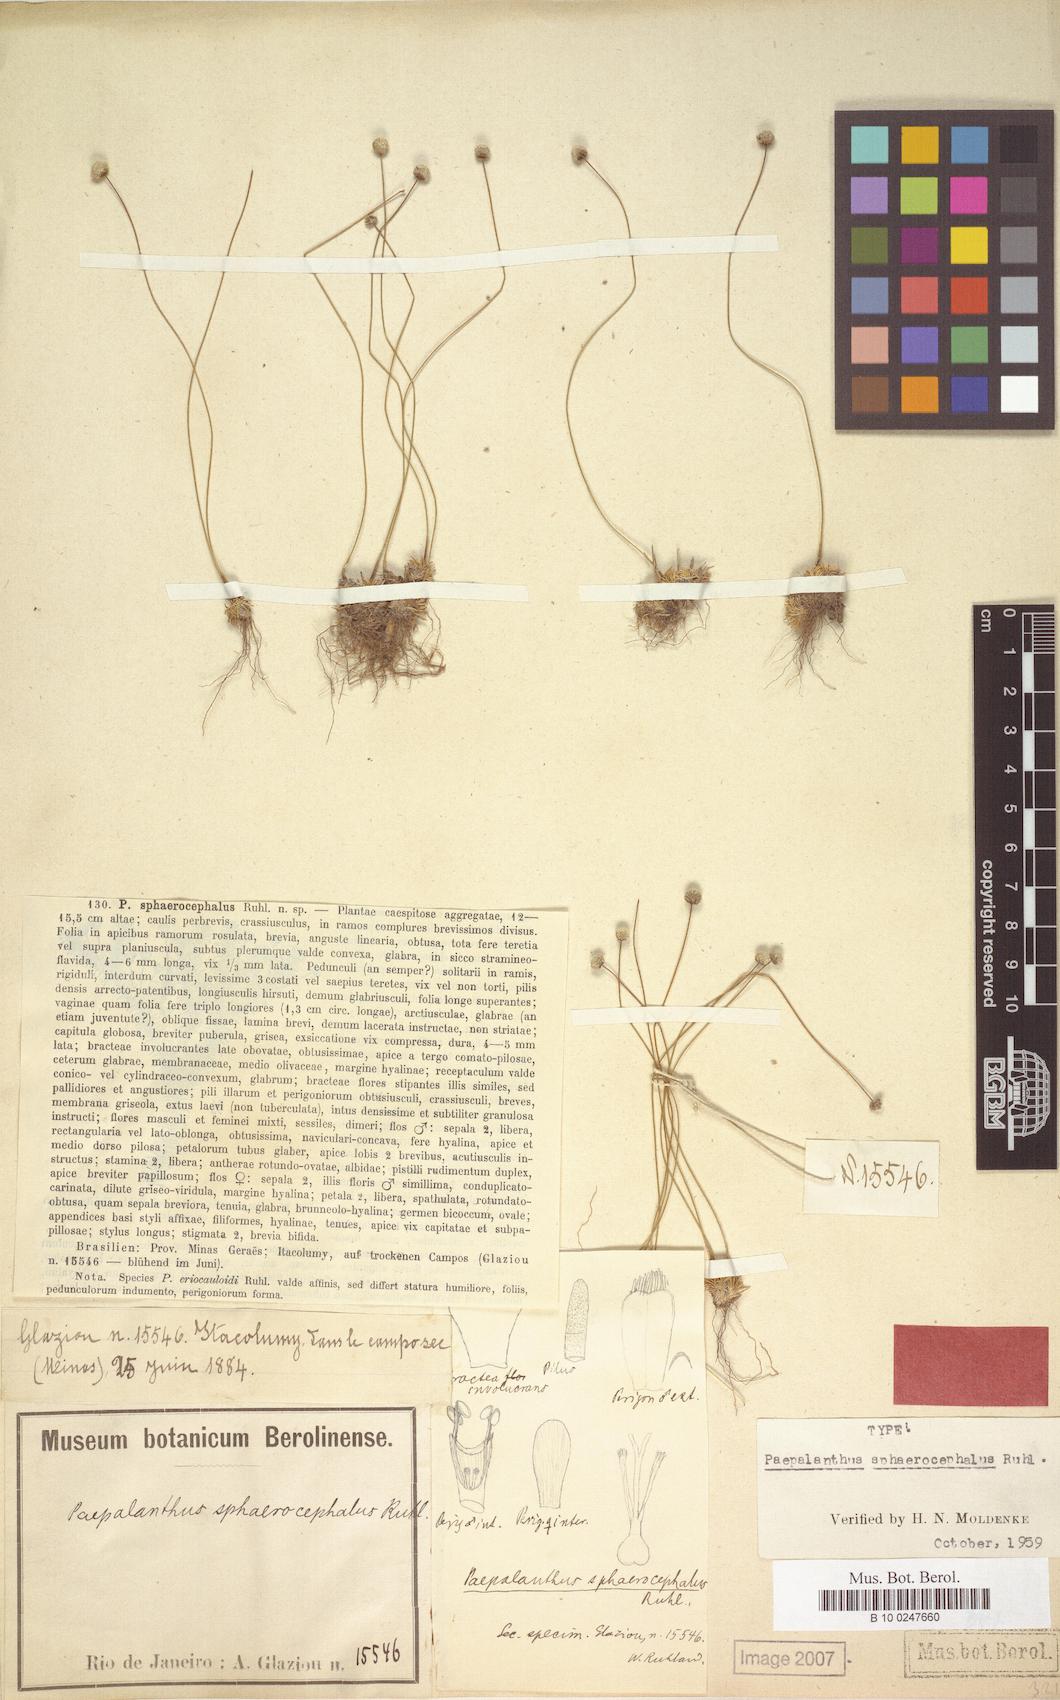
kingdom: Plantae
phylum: Tracheophyta
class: Liliopsida
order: Poales
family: Eriocaulaceae
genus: Paepalanthus
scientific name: Paepalanthus sphaerocephalus
